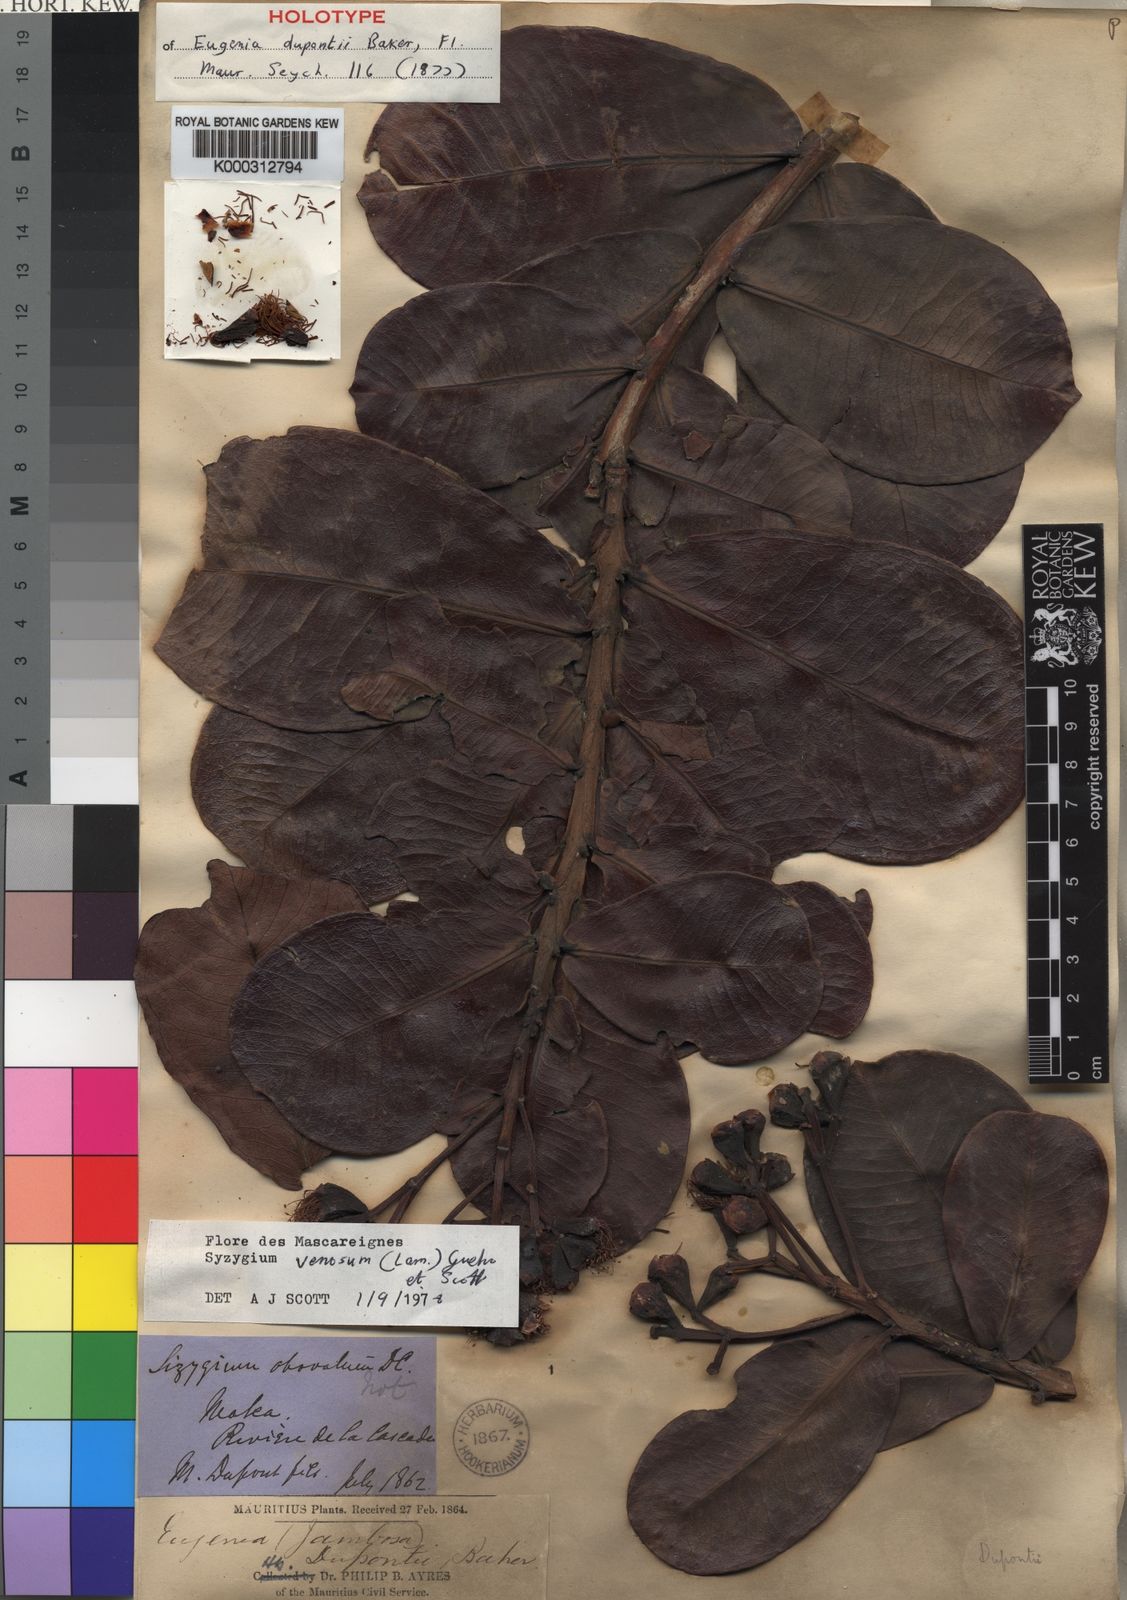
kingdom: Plantae
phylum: Tracheophyta
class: Magnoliopsida
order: Myrtales
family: Myrtaceae
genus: Syzygium
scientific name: Syzygium dupontii
